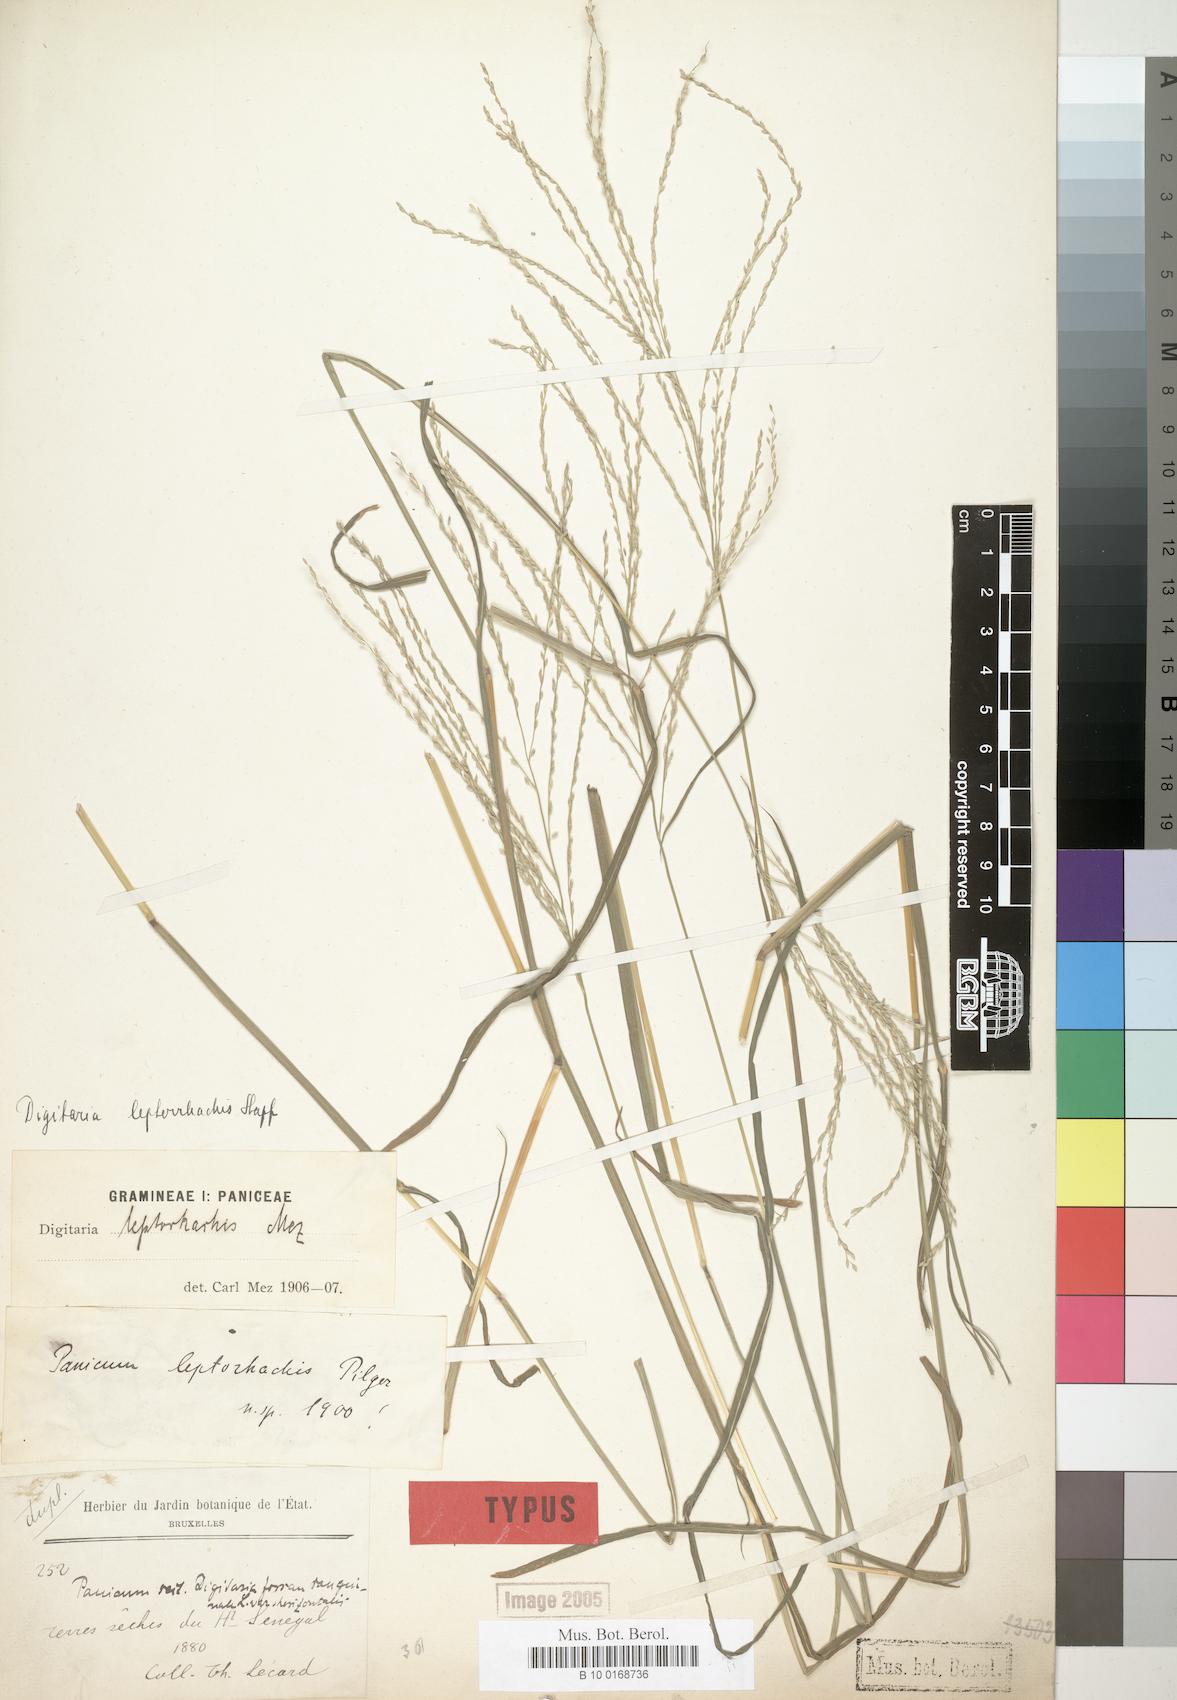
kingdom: Plantae
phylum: Tracheophyta
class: Liliopsida
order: Poales
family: Poaceae
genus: Digitaria
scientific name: Digitaria leptorhachis
